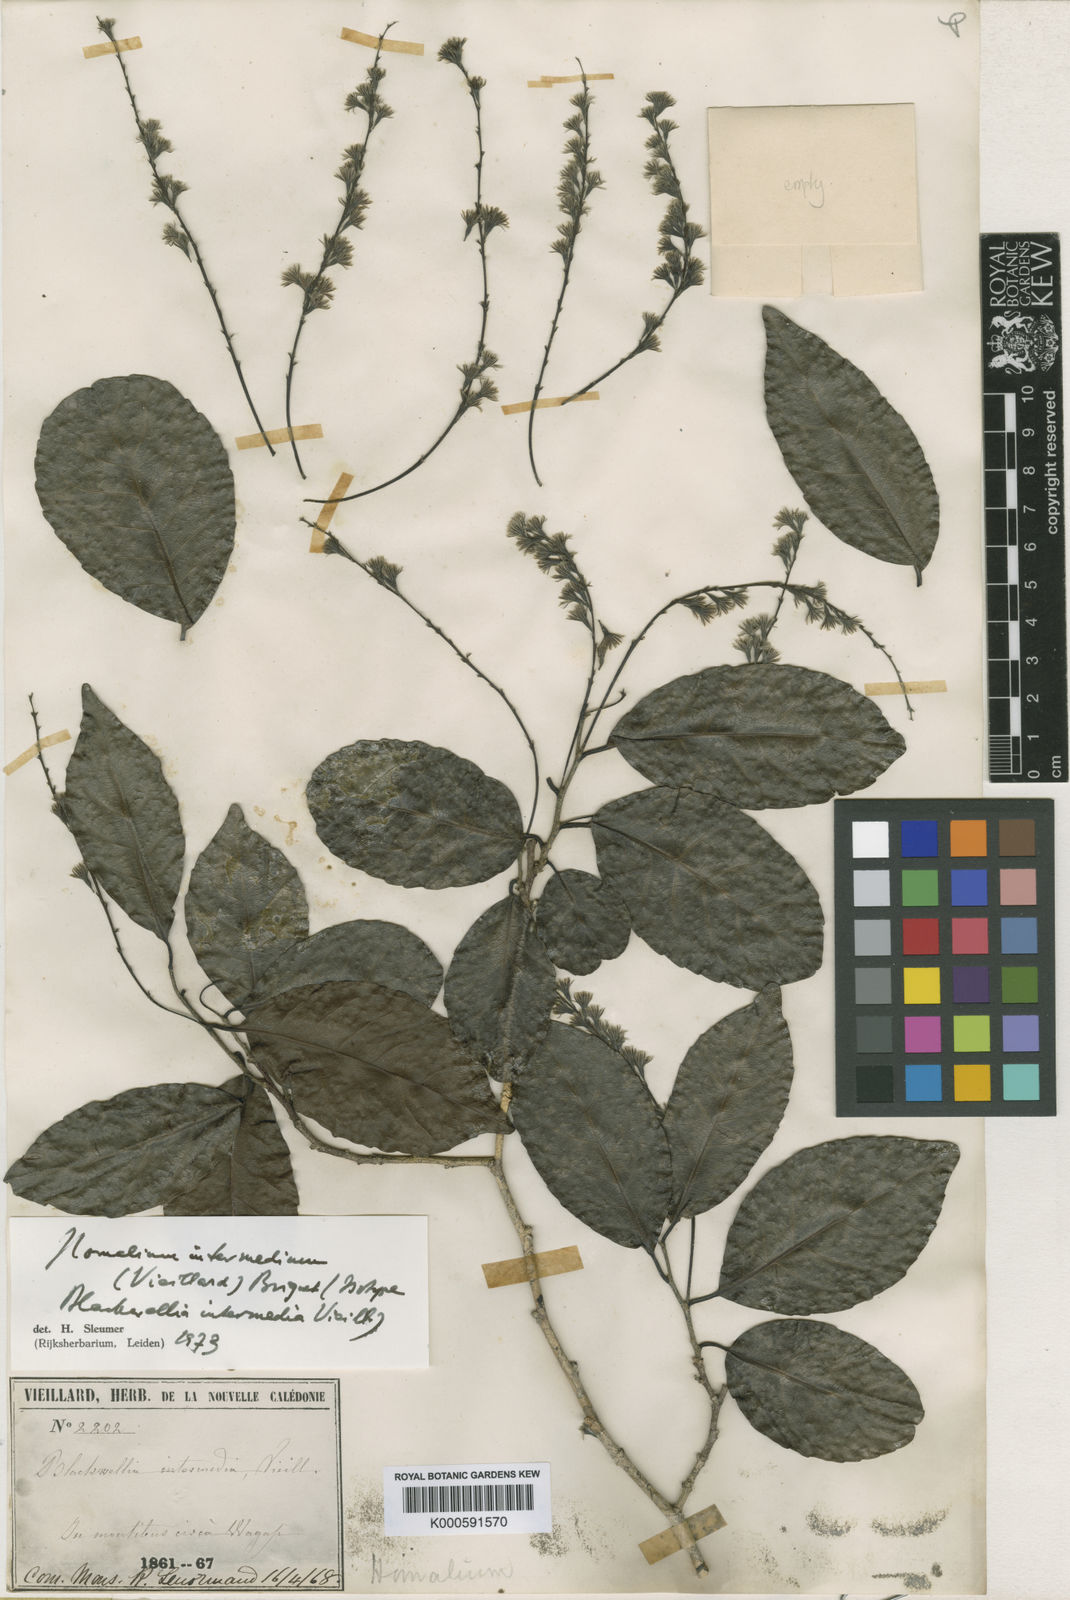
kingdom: Plantae
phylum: Tracheophyta
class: Magnoliopsida
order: Malpighiales
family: Salicaceae
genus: Homalium
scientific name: Homalium intermedium
